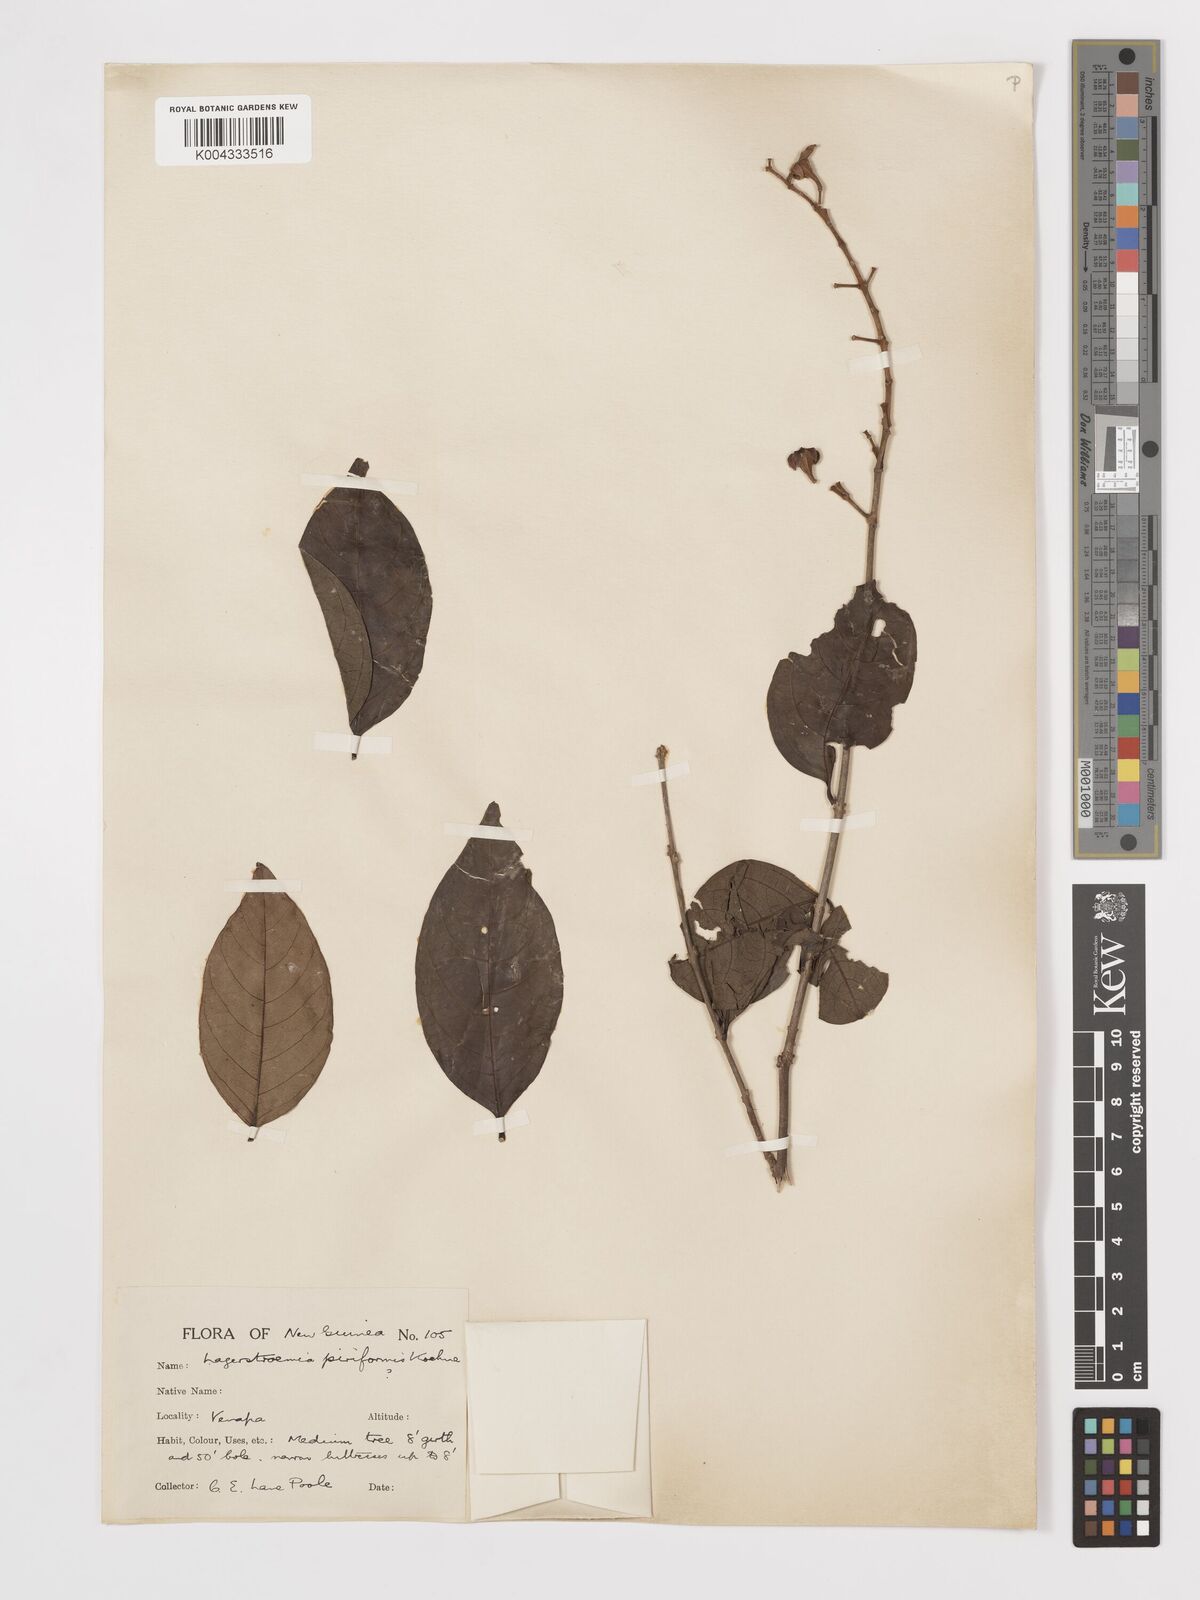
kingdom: Plantae
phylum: Tracheophyta
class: Magnoliopsida
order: Myrtales
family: Lythraceae
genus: Lagerstroemia
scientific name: Lagerstroemia celebica
